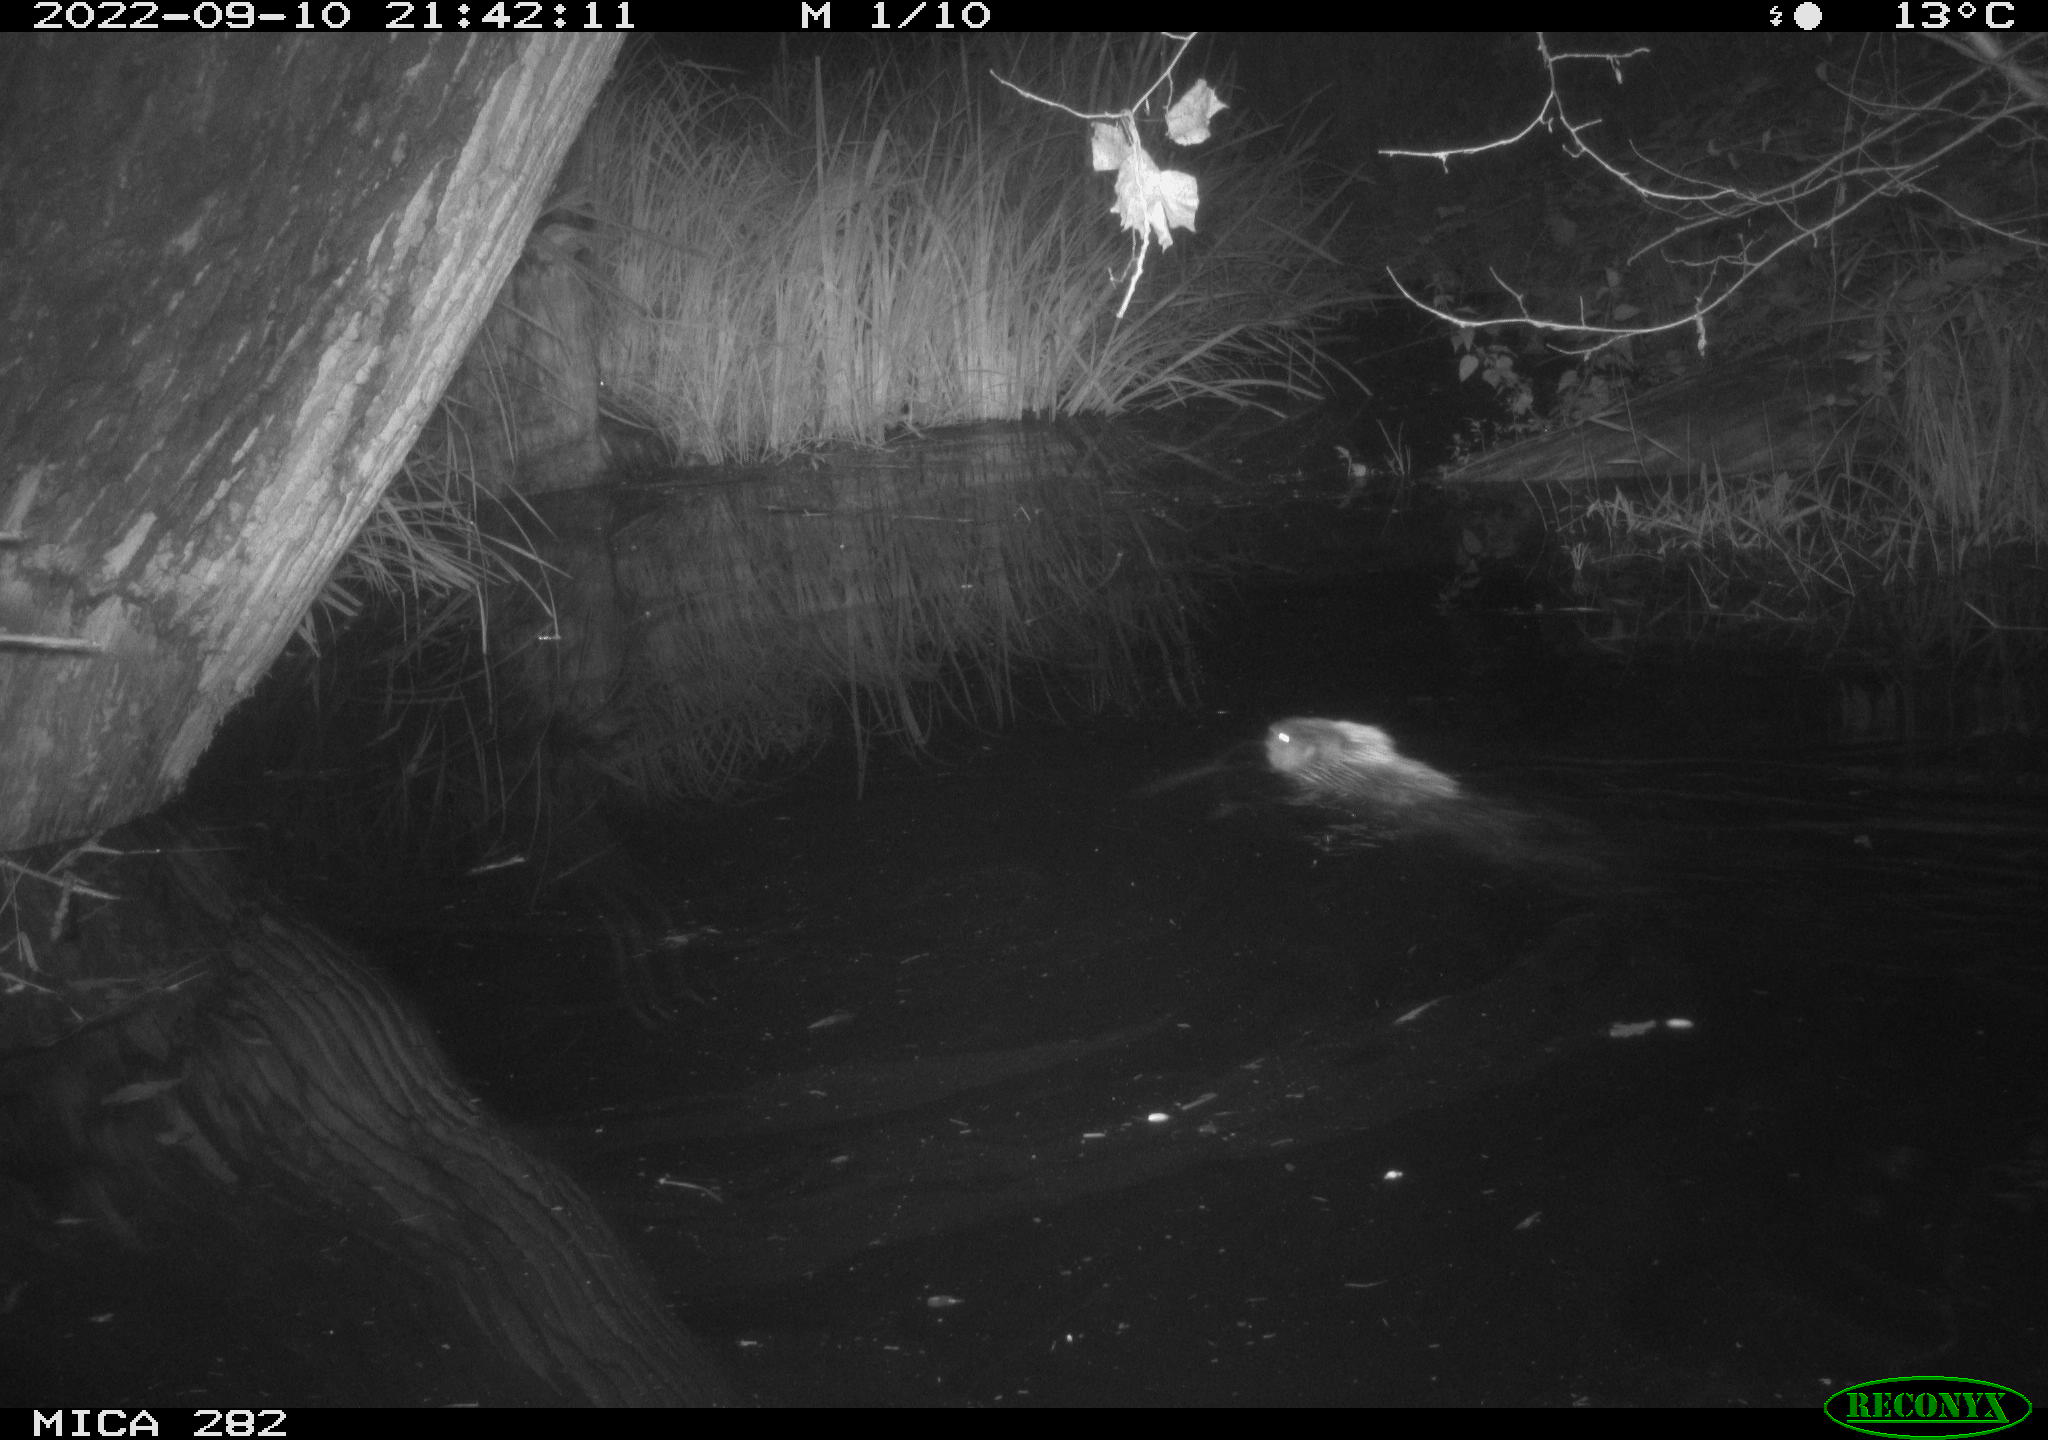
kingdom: Animalia
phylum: Chordata
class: Mammalia
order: Rodentia
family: Castoridae
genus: Castor
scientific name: Castor fiber
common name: Eurasian beaver
